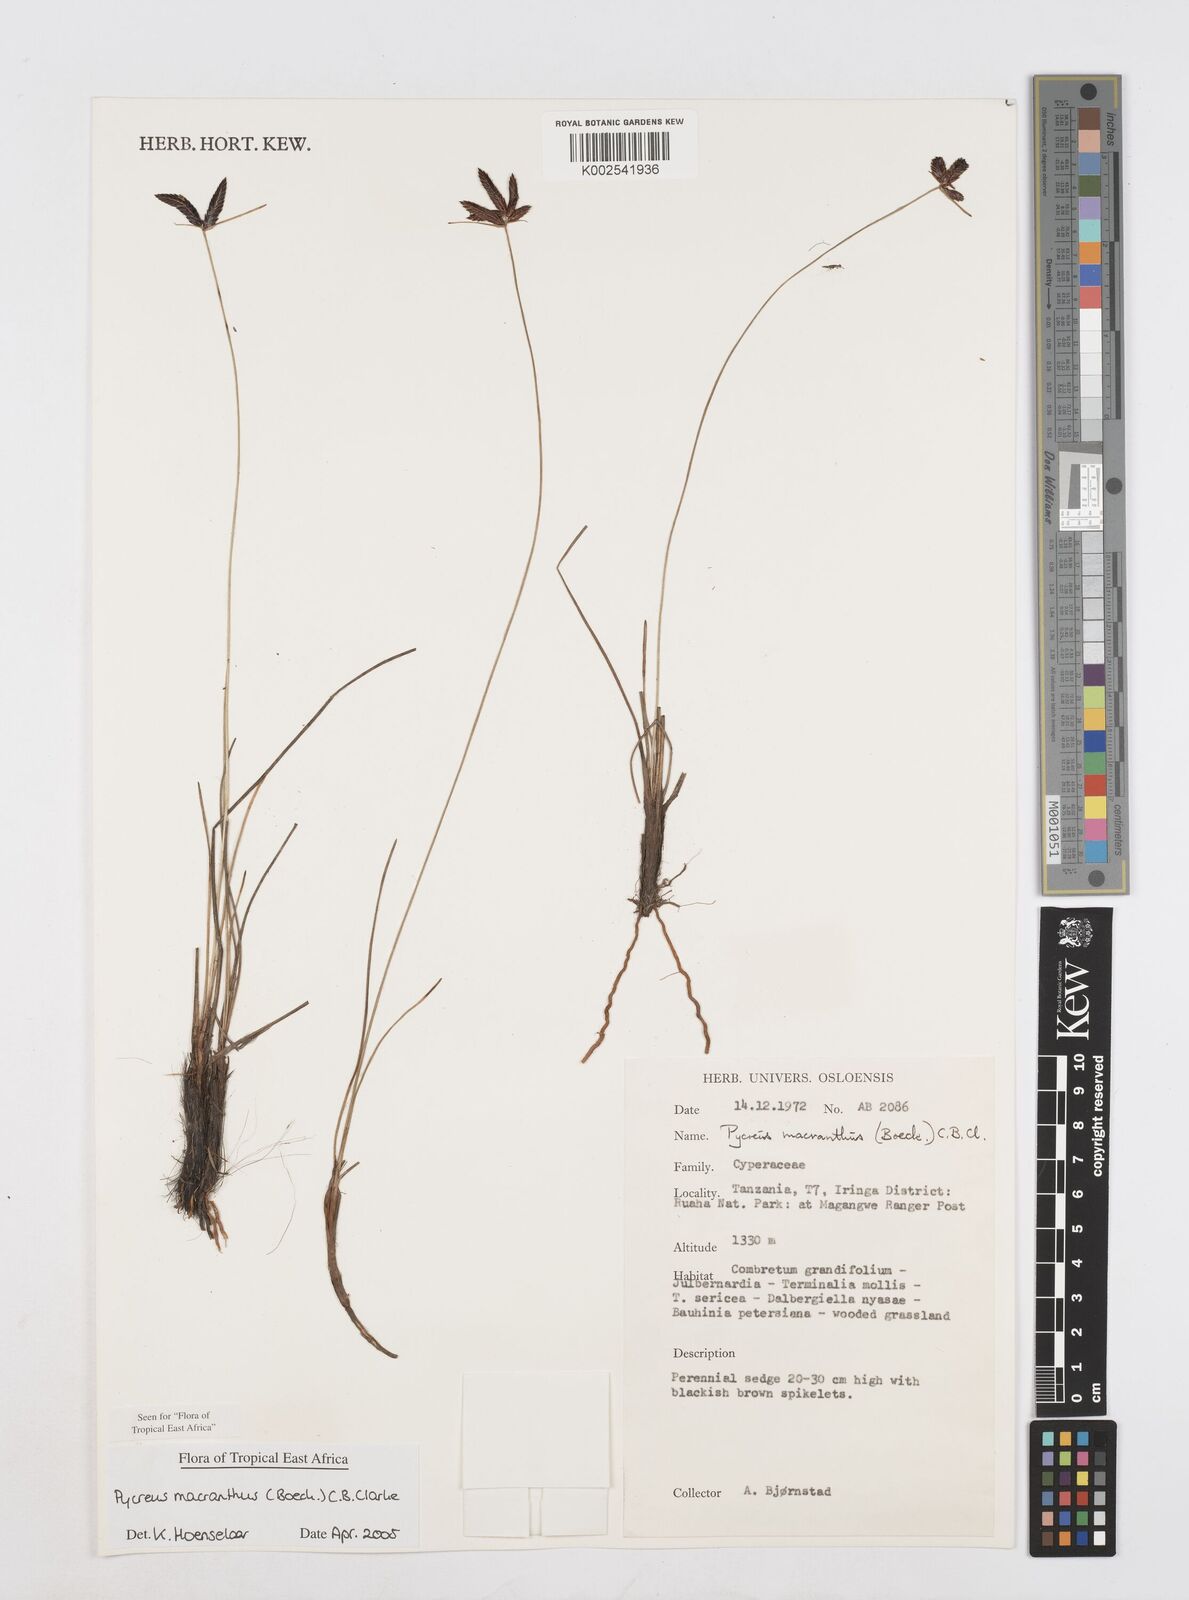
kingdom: Plantae
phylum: Tracheophyta
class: Liliopsida
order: Poales
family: Cyperaceae
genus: Cyperus
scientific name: Cyperus nigricans
